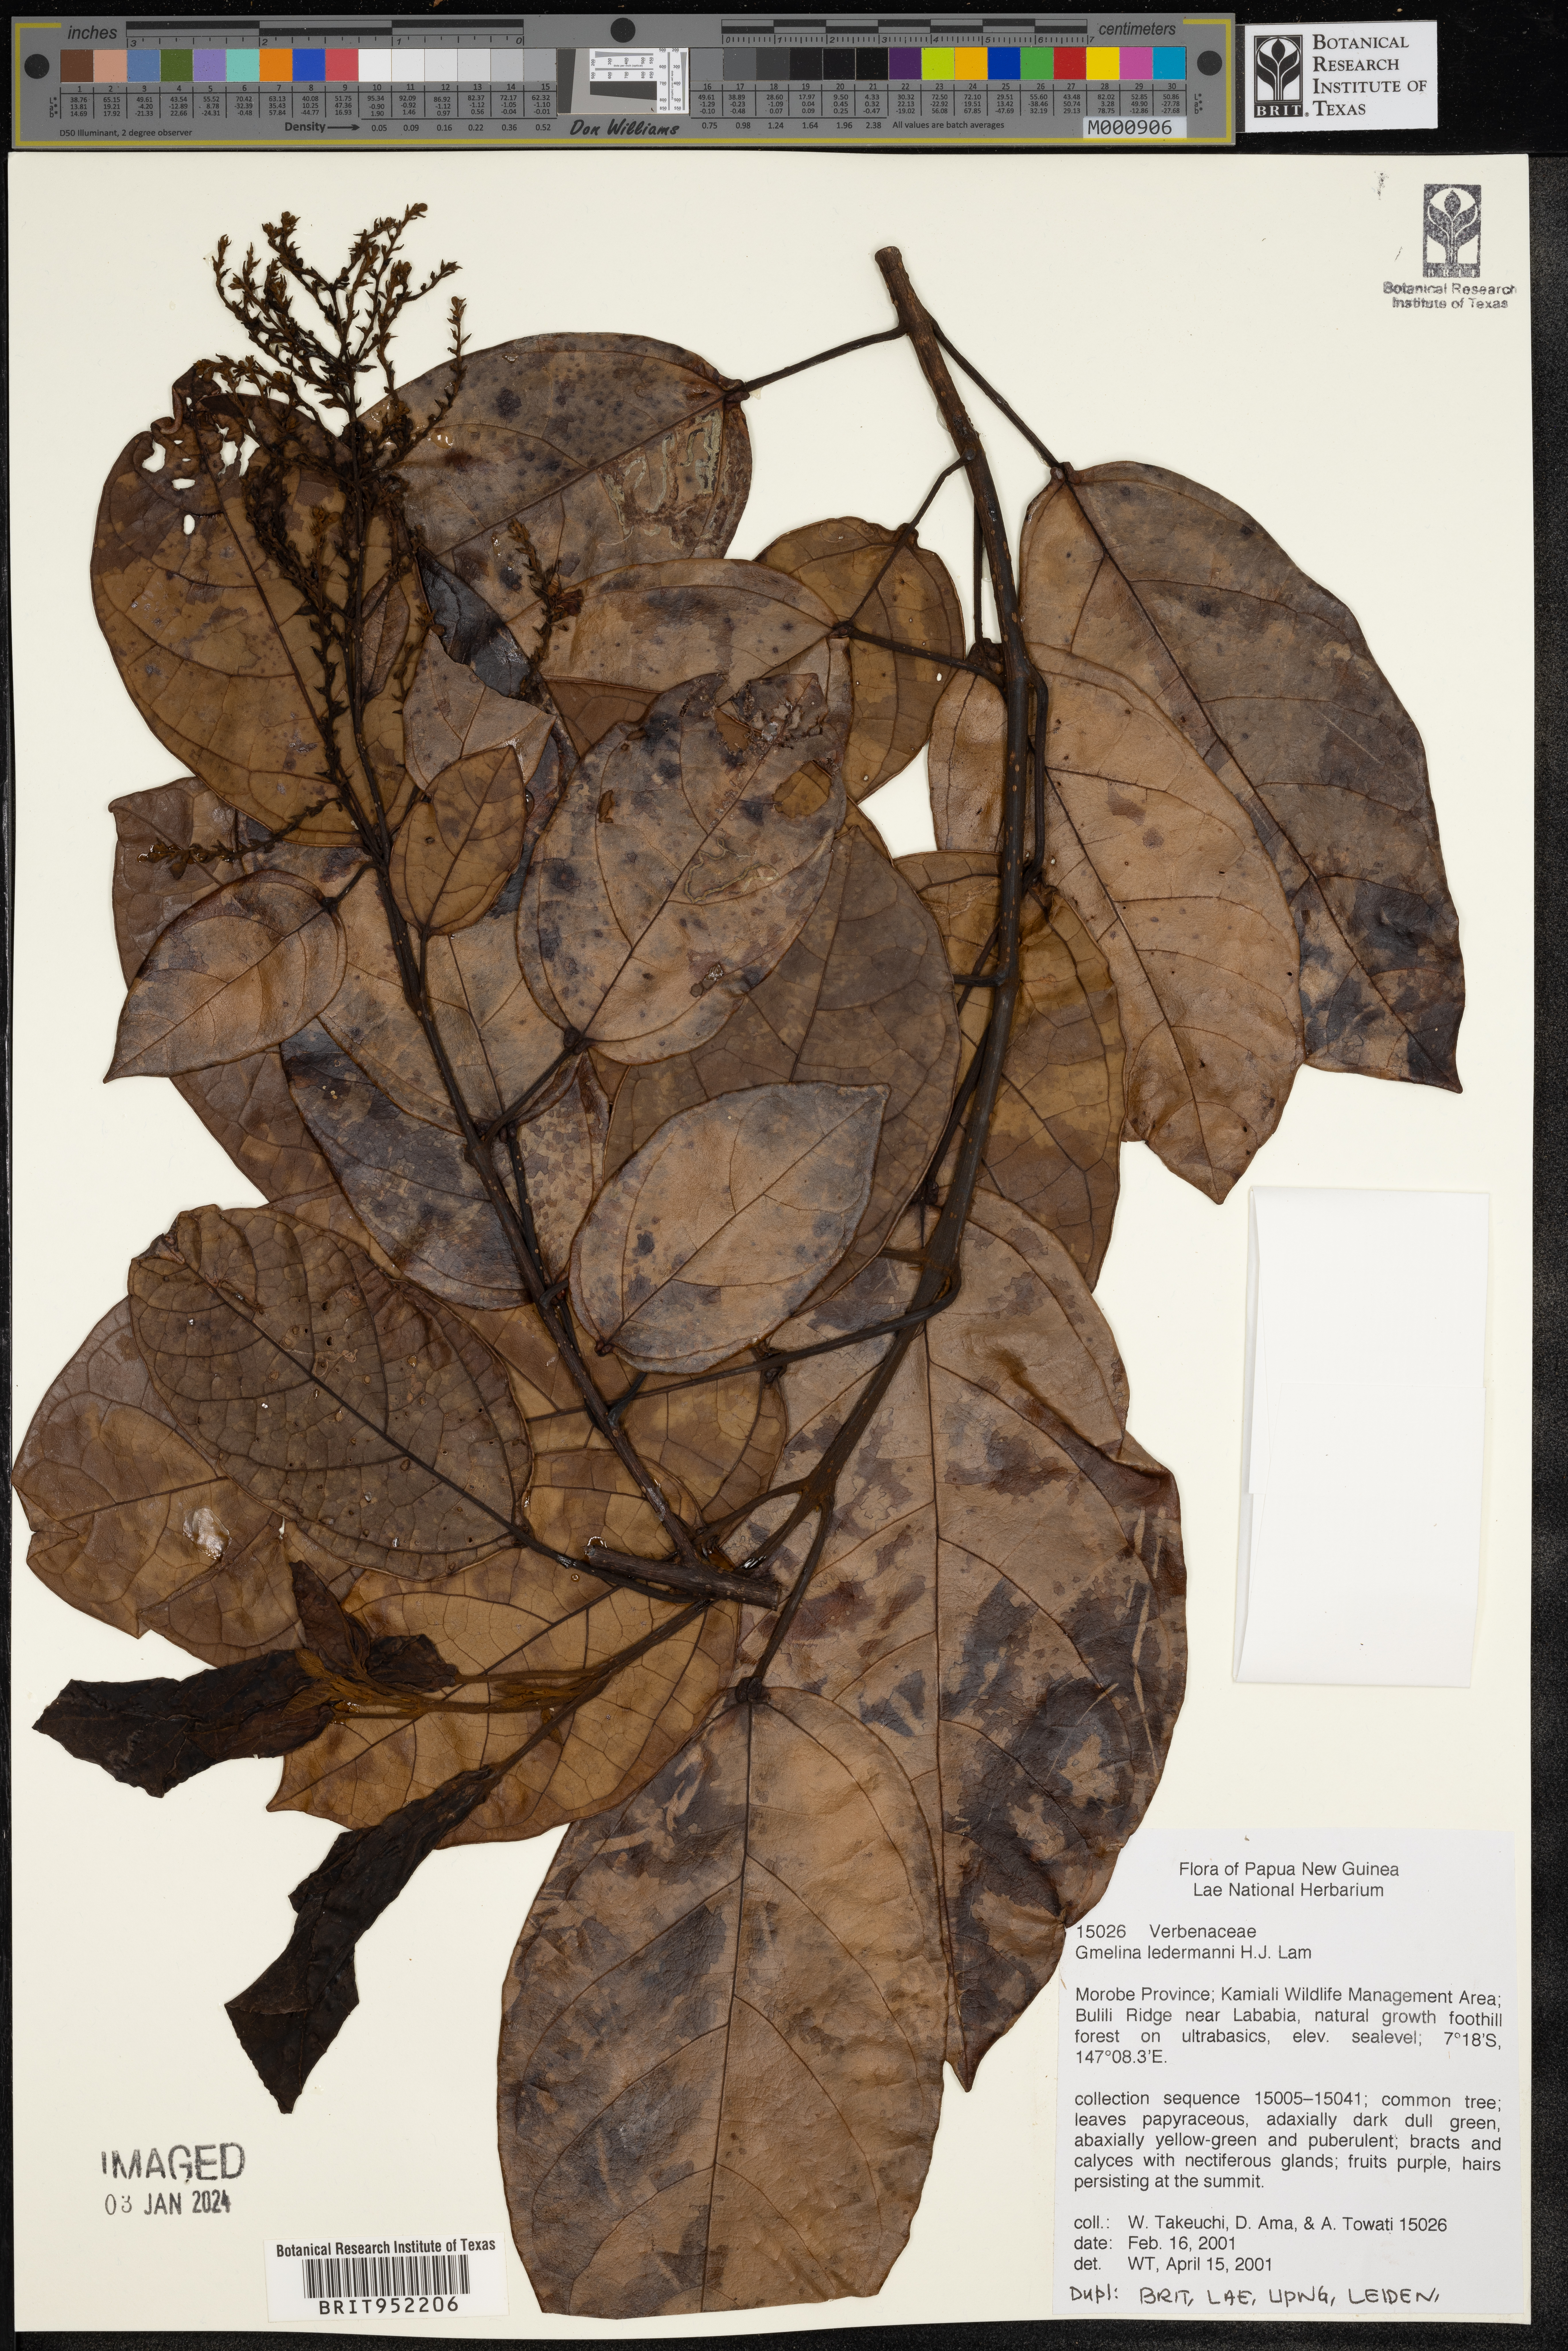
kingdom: Plantae
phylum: Tracheophyta
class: Magnoliopsida
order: Lamiales
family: Lamiaceae
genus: Gmelina
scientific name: Gmelina
